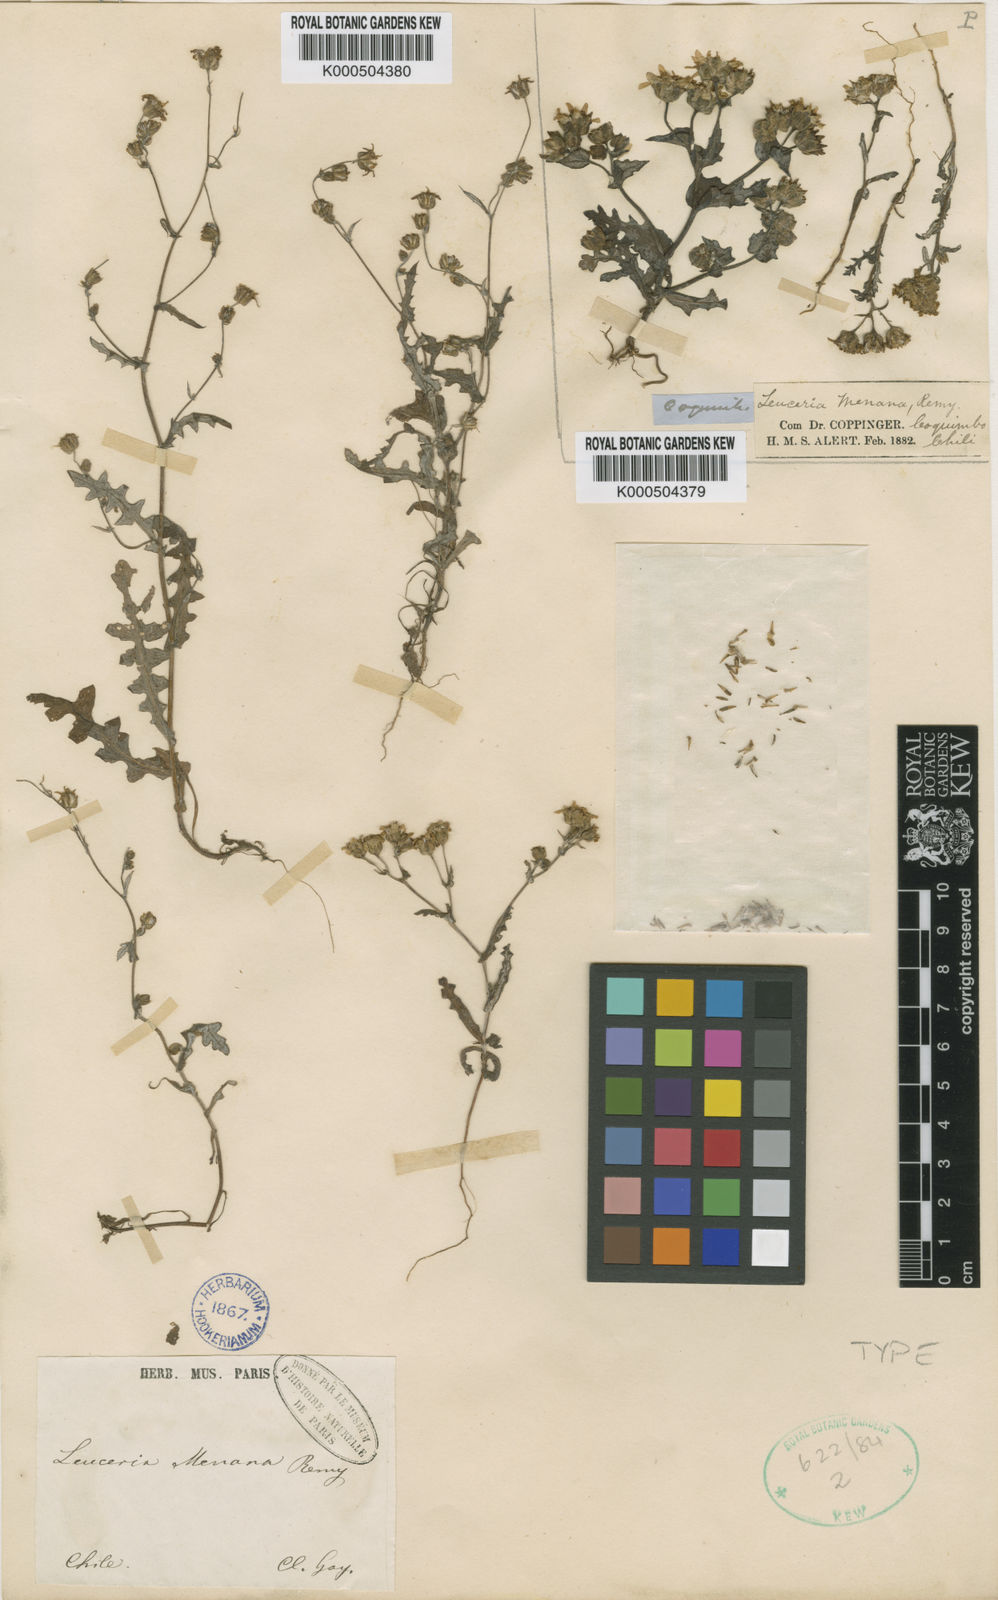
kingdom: Plantae
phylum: Tracheophyta
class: Magnoliopsida
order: Asterales
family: Asteraceae
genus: Leucheria
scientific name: Leucheria menana
